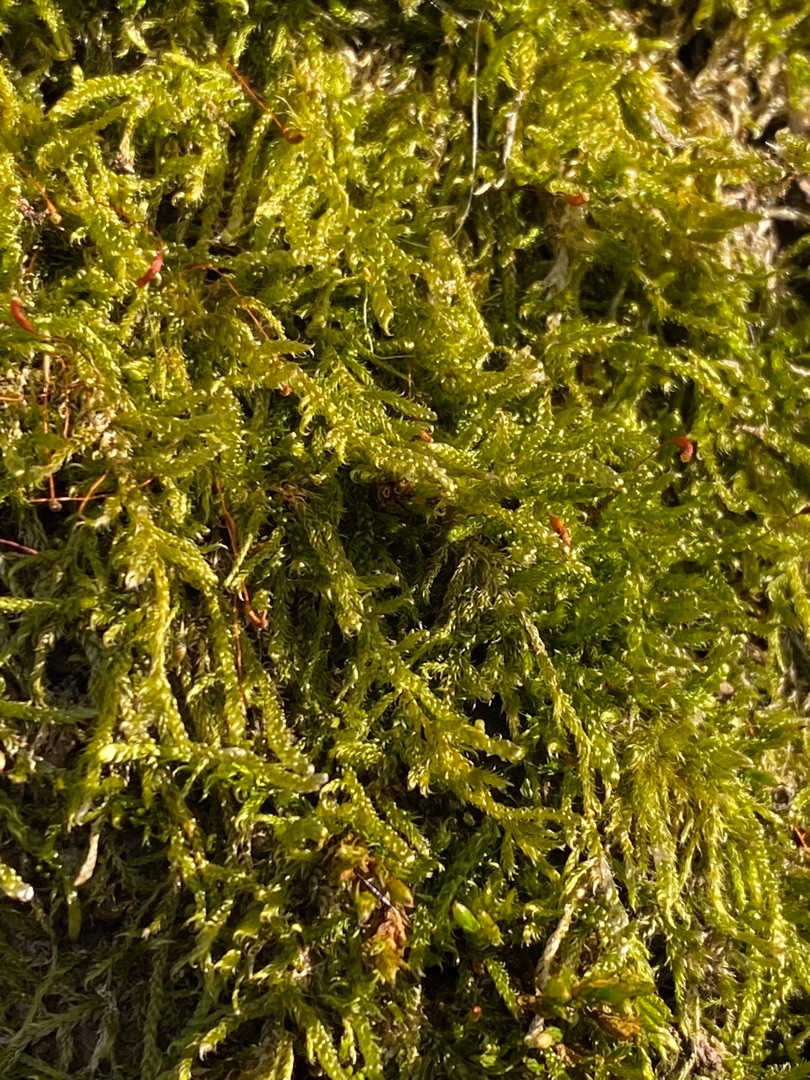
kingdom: Plantae
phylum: Bryophyta
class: Bryopsida
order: Hypnales
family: Hypnaceae
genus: Hypnum
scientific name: Hypnum cupressiforme
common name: Almindelig cypresmos
